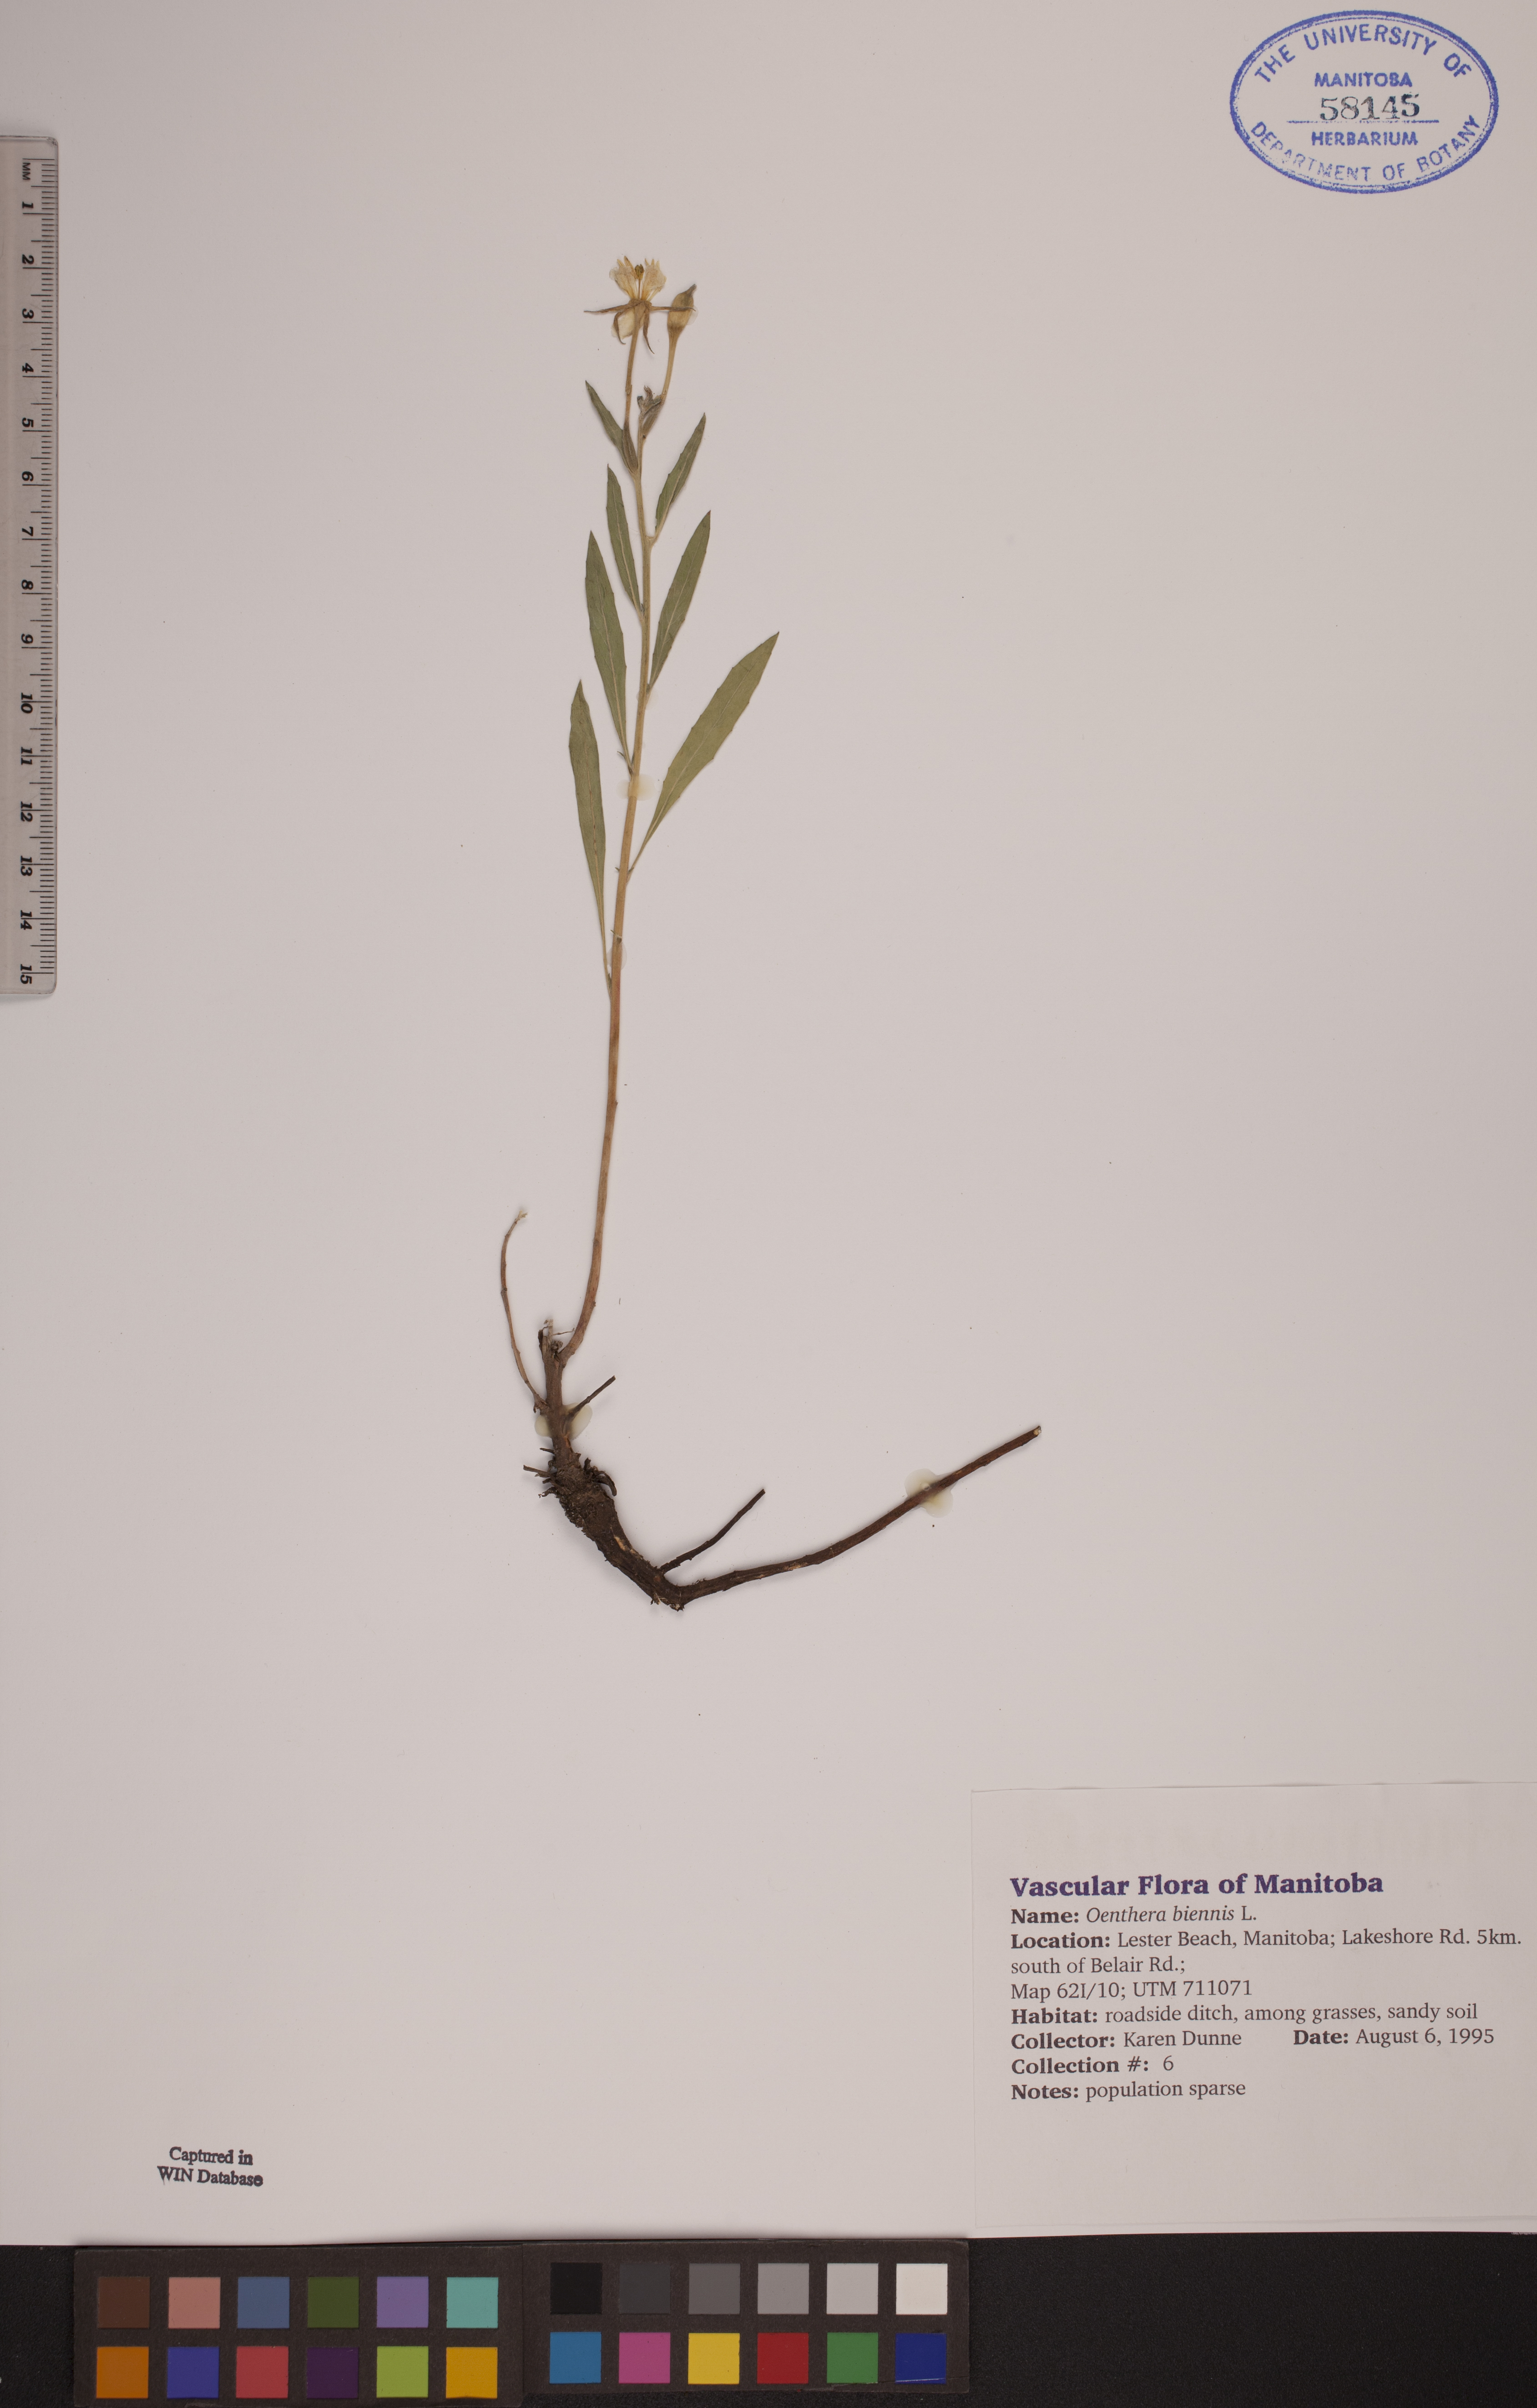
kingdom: Plantae
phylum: Tracheophyta
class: Magnoliopsida
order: Myrtales
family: Onagraceae
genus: Oenothera
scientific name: Oenothera biennis
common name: Common evening-primrose
